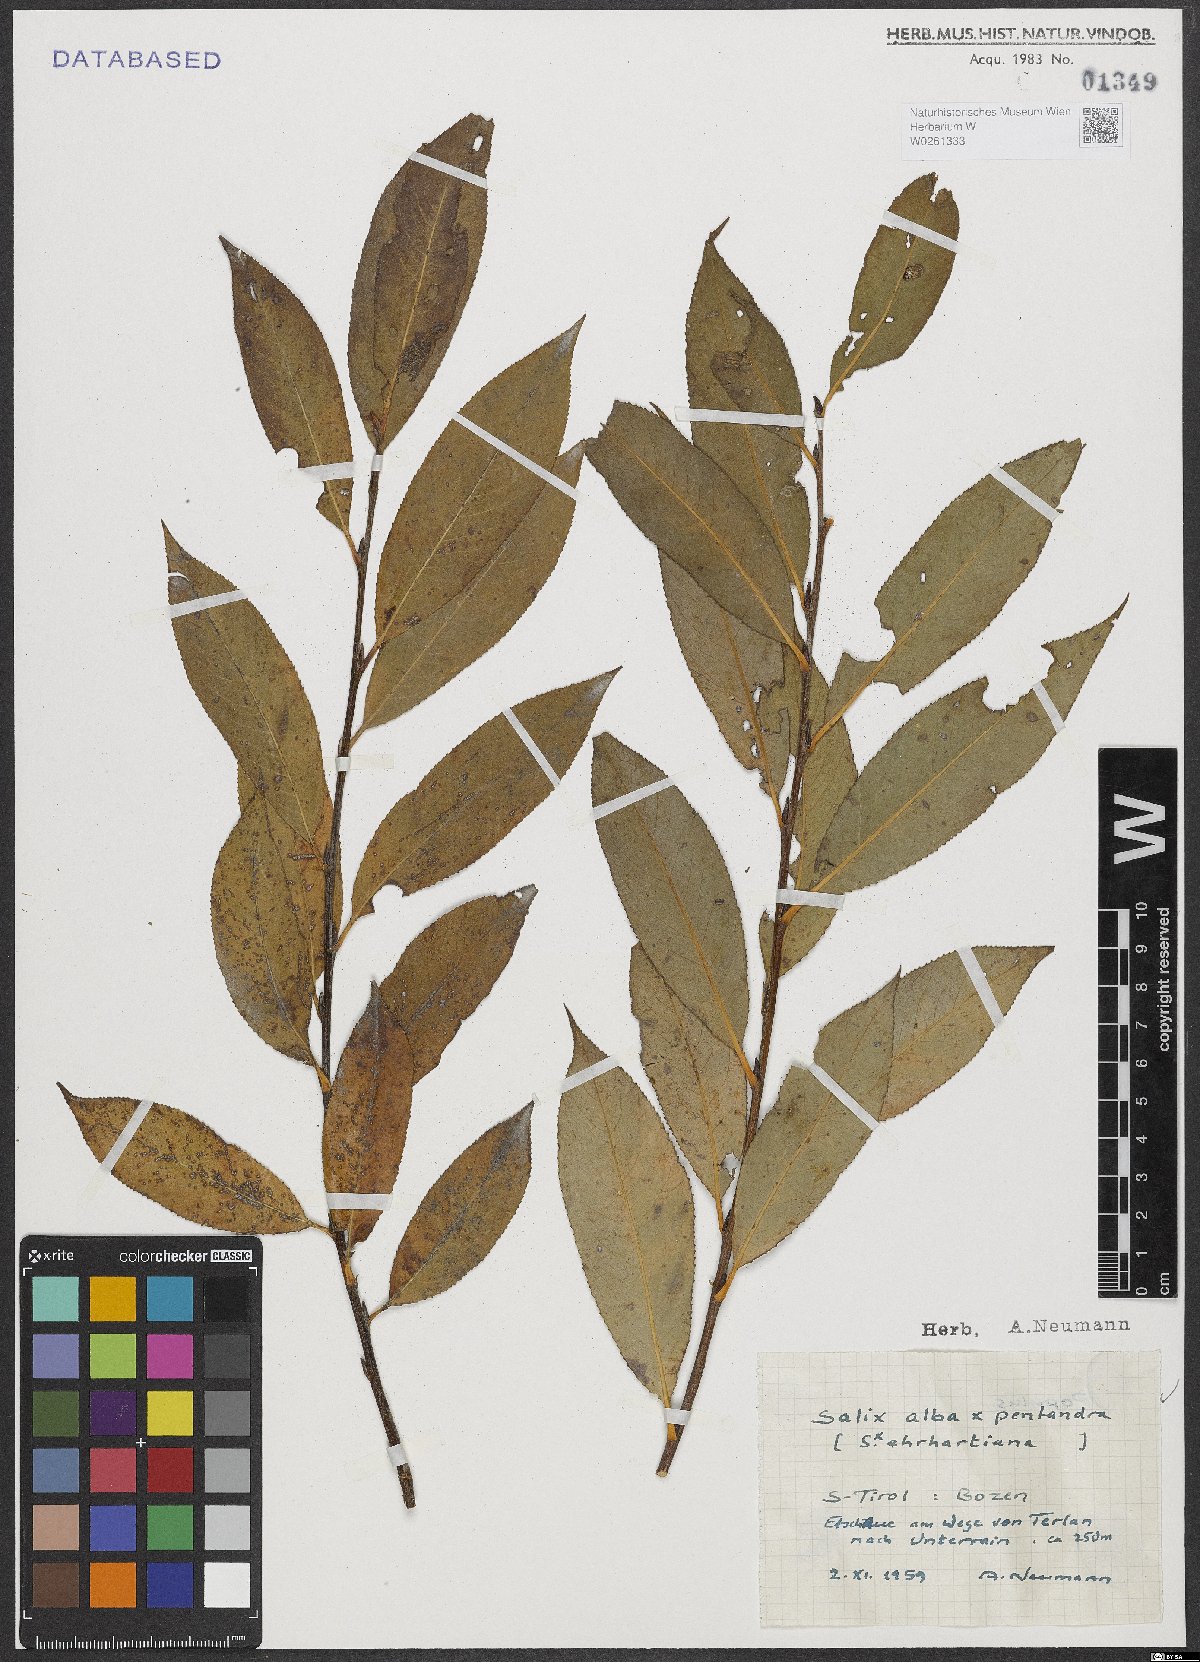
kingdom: Plantae
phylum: Tracheophyta
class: Magnoliopsida
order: Malpighiales
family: Salicaceae
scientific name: Salicaceae
